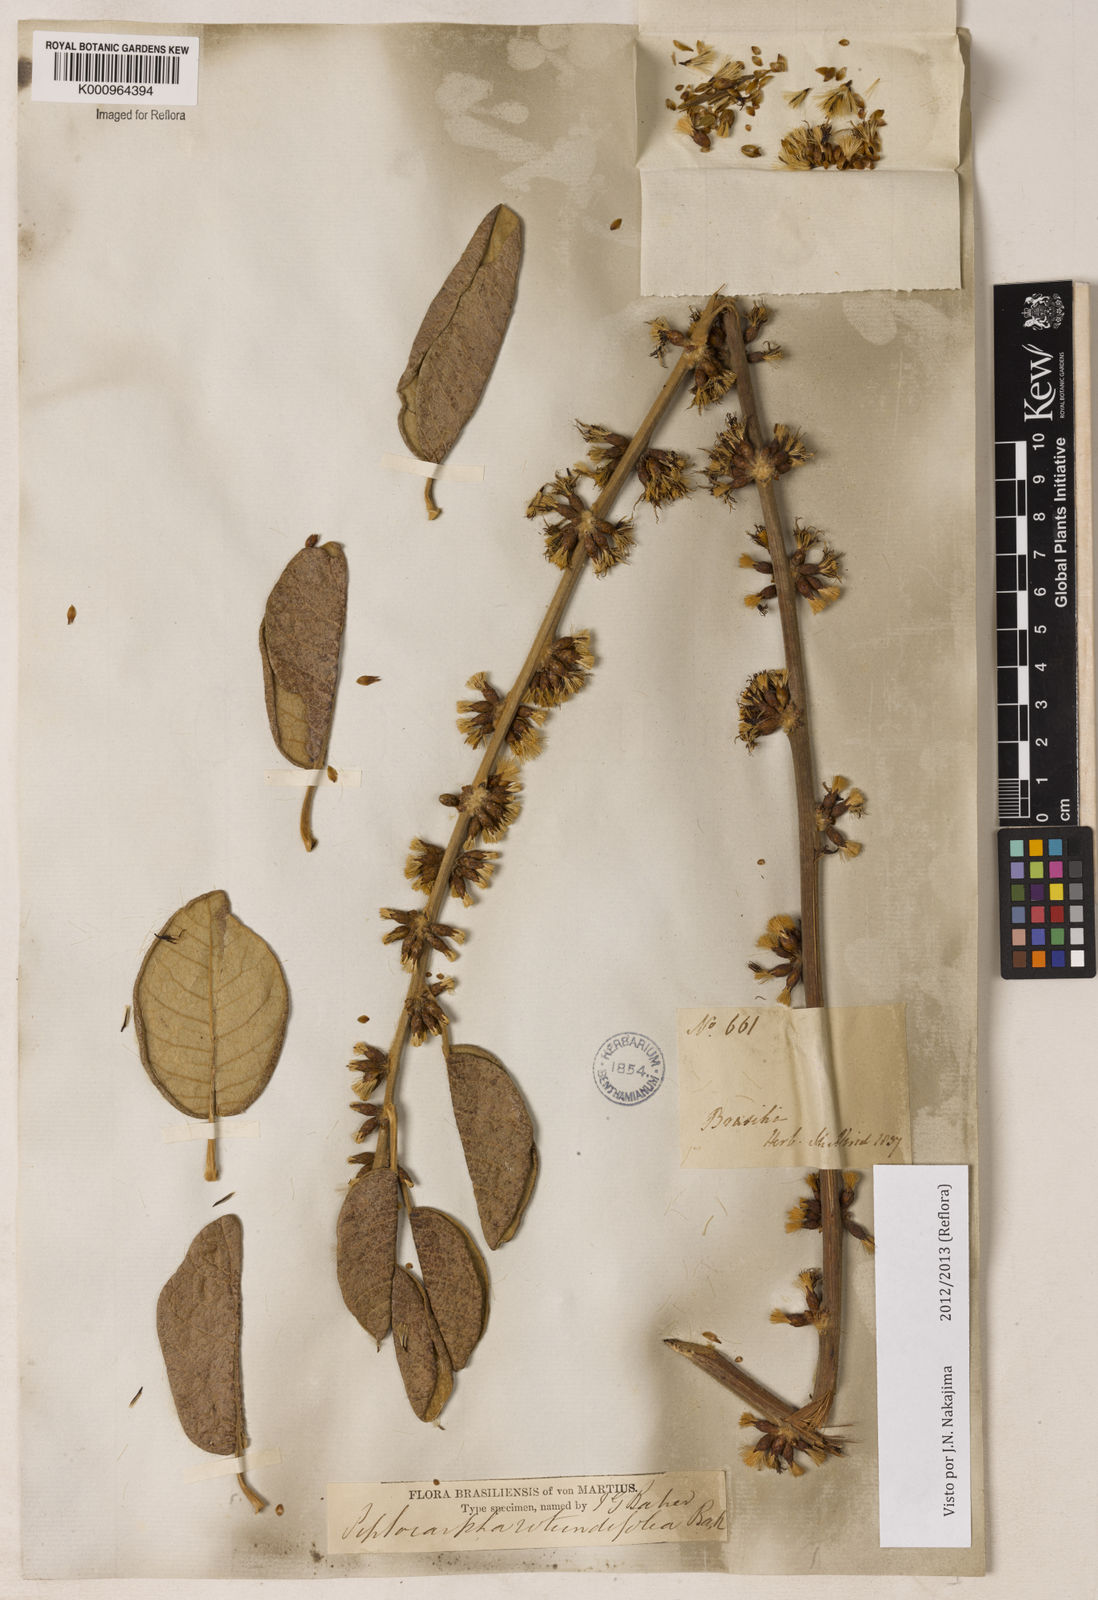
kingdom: Plantae
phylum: Tracheophyta
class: Magnoliopsida
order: Asterales
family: Asteraceae
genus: Piptocarpha
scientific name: Piptocarpha rotundifolia
